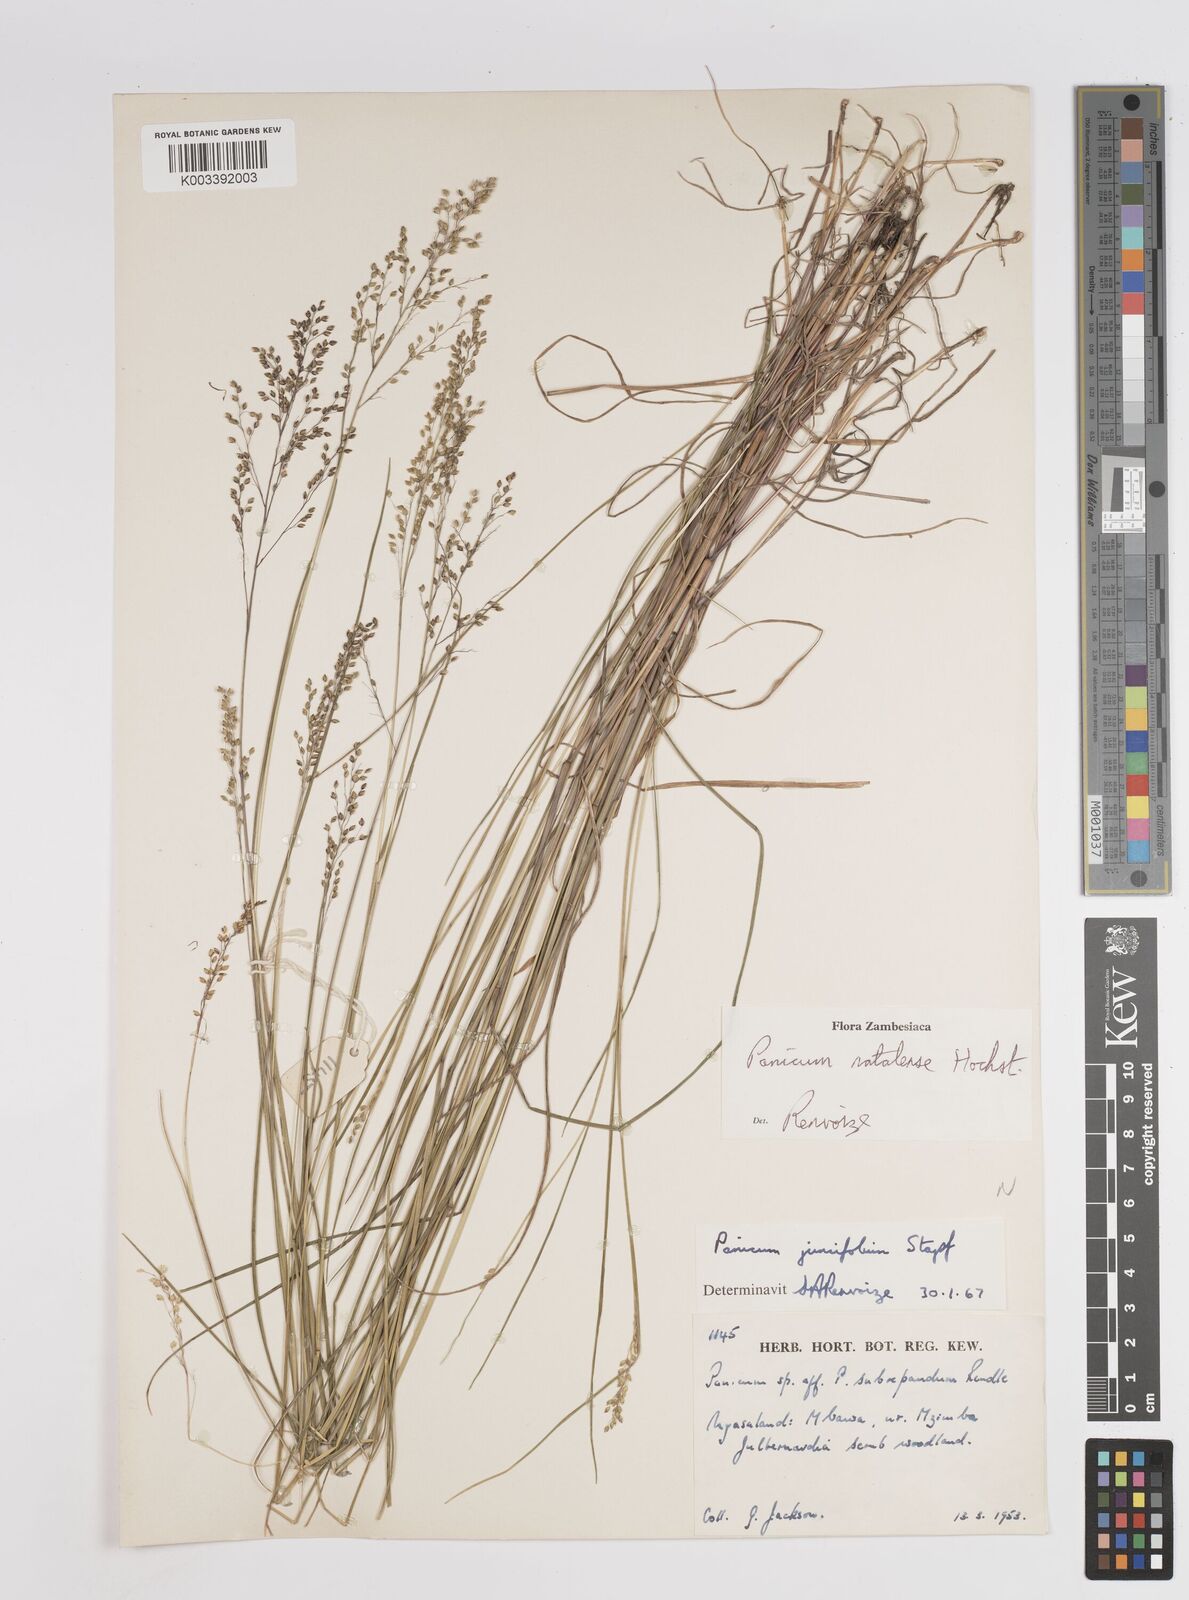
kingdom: Plantae
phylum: Tracheophyta
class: Liliopsida
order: Poales
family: Poaceae
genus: Trichanthecium
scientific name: Trichanthecium natalense
